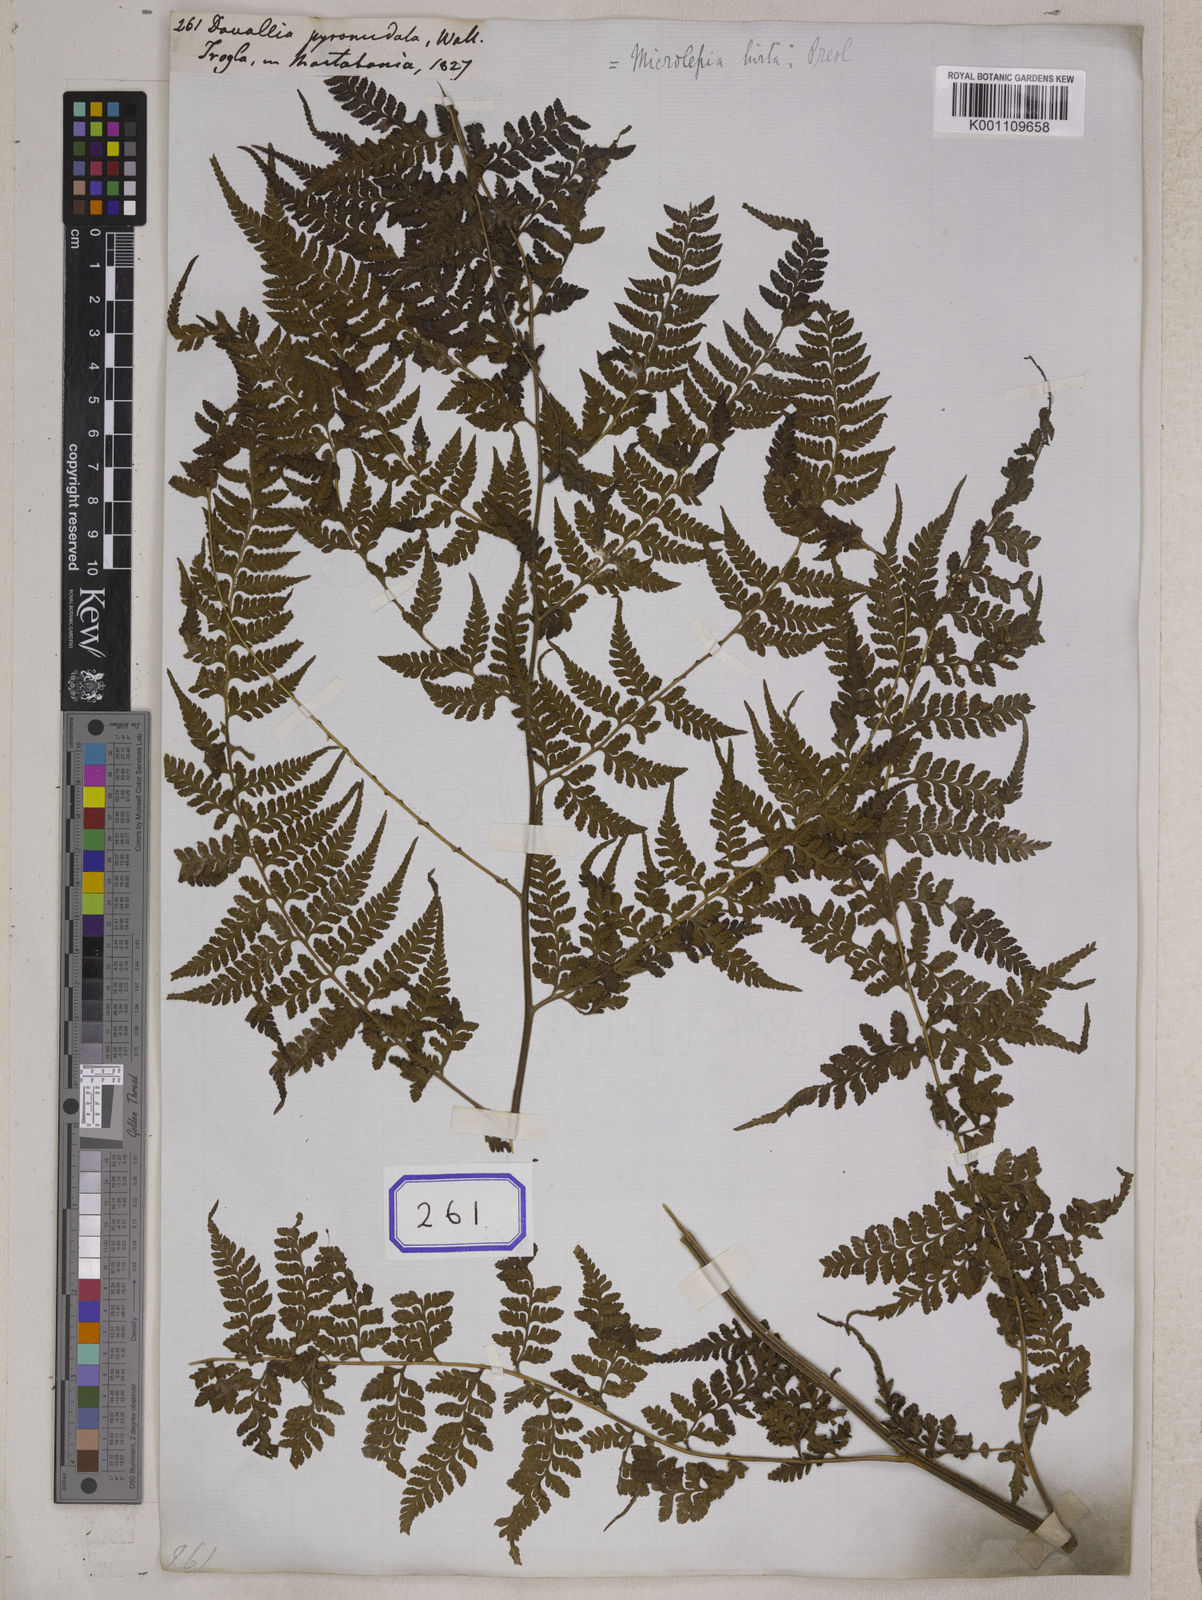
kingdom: Plantae
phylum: Tracheophyta
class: Polypodiopsida
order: Polypodiales
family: Dennstaedtiaceae
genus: Microlepia
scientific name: Microlepia marginata
